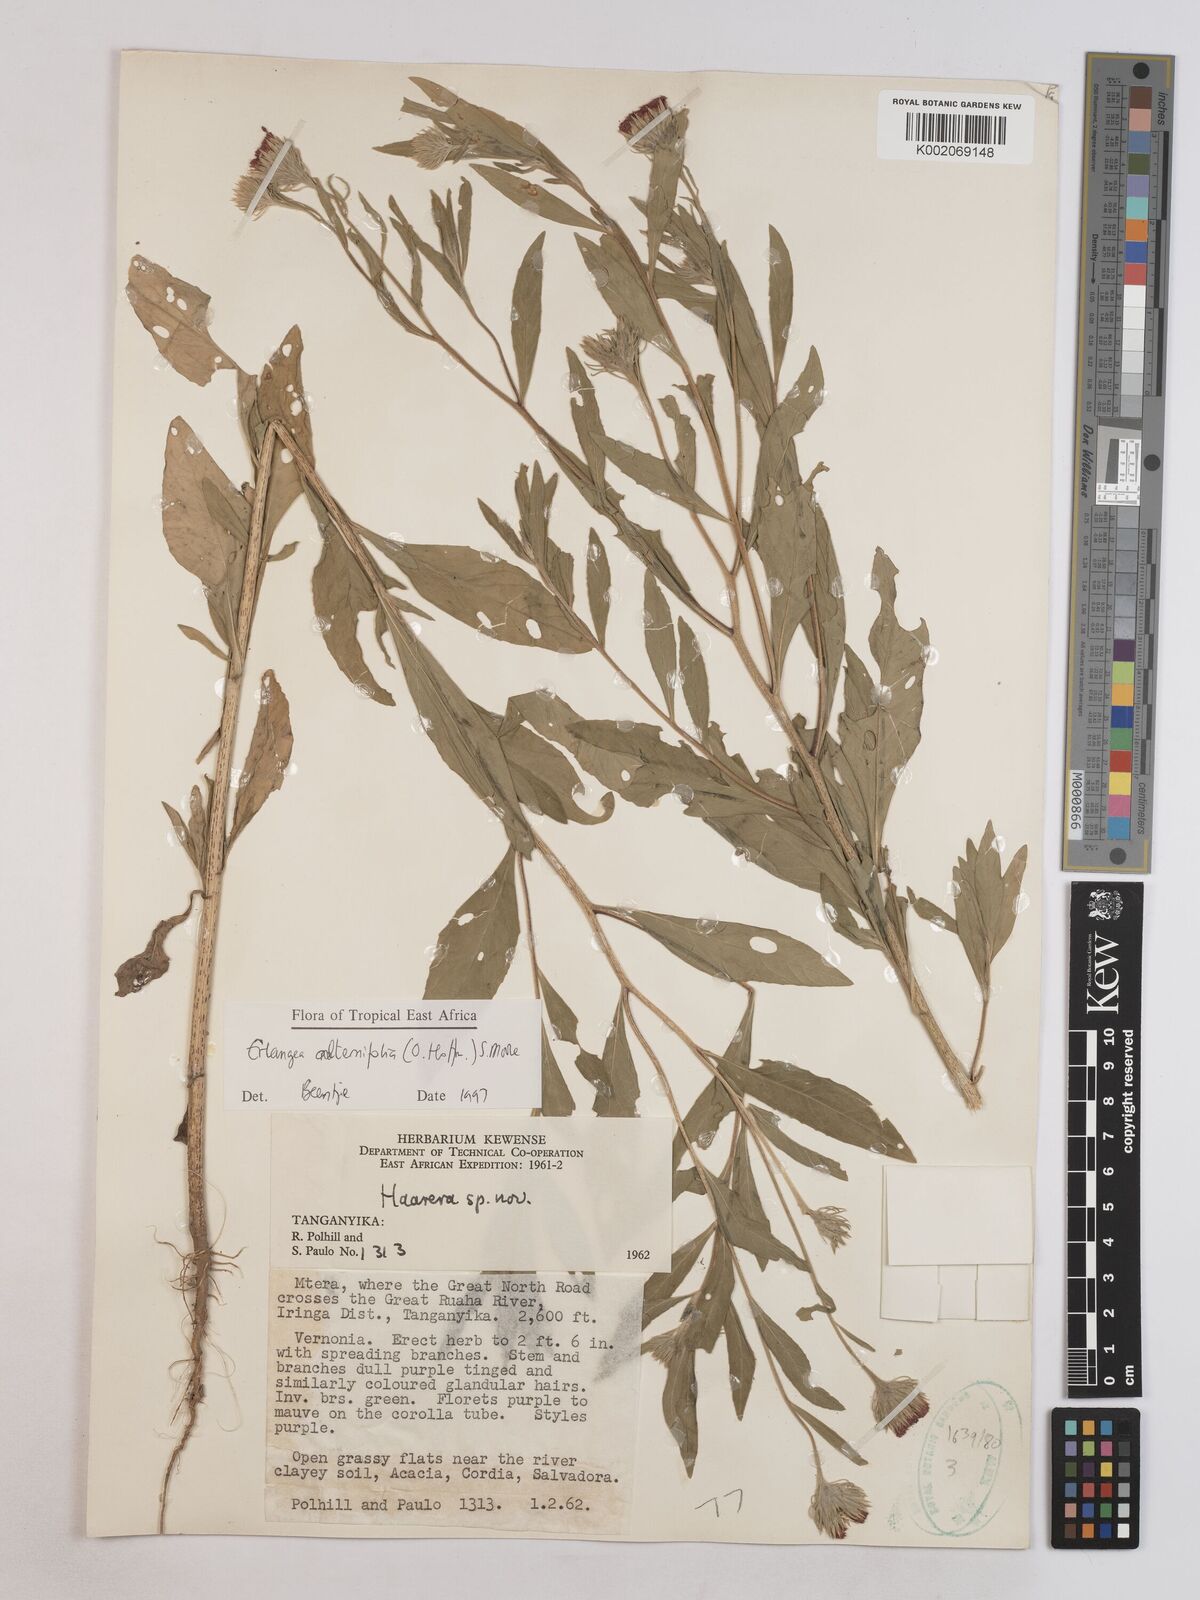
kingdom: Plantae
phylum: Tracheophyta
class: Magnoliopsida
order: Asterales
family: Asteraceae
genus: Erlangea
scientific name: Erlangea alternifolia
